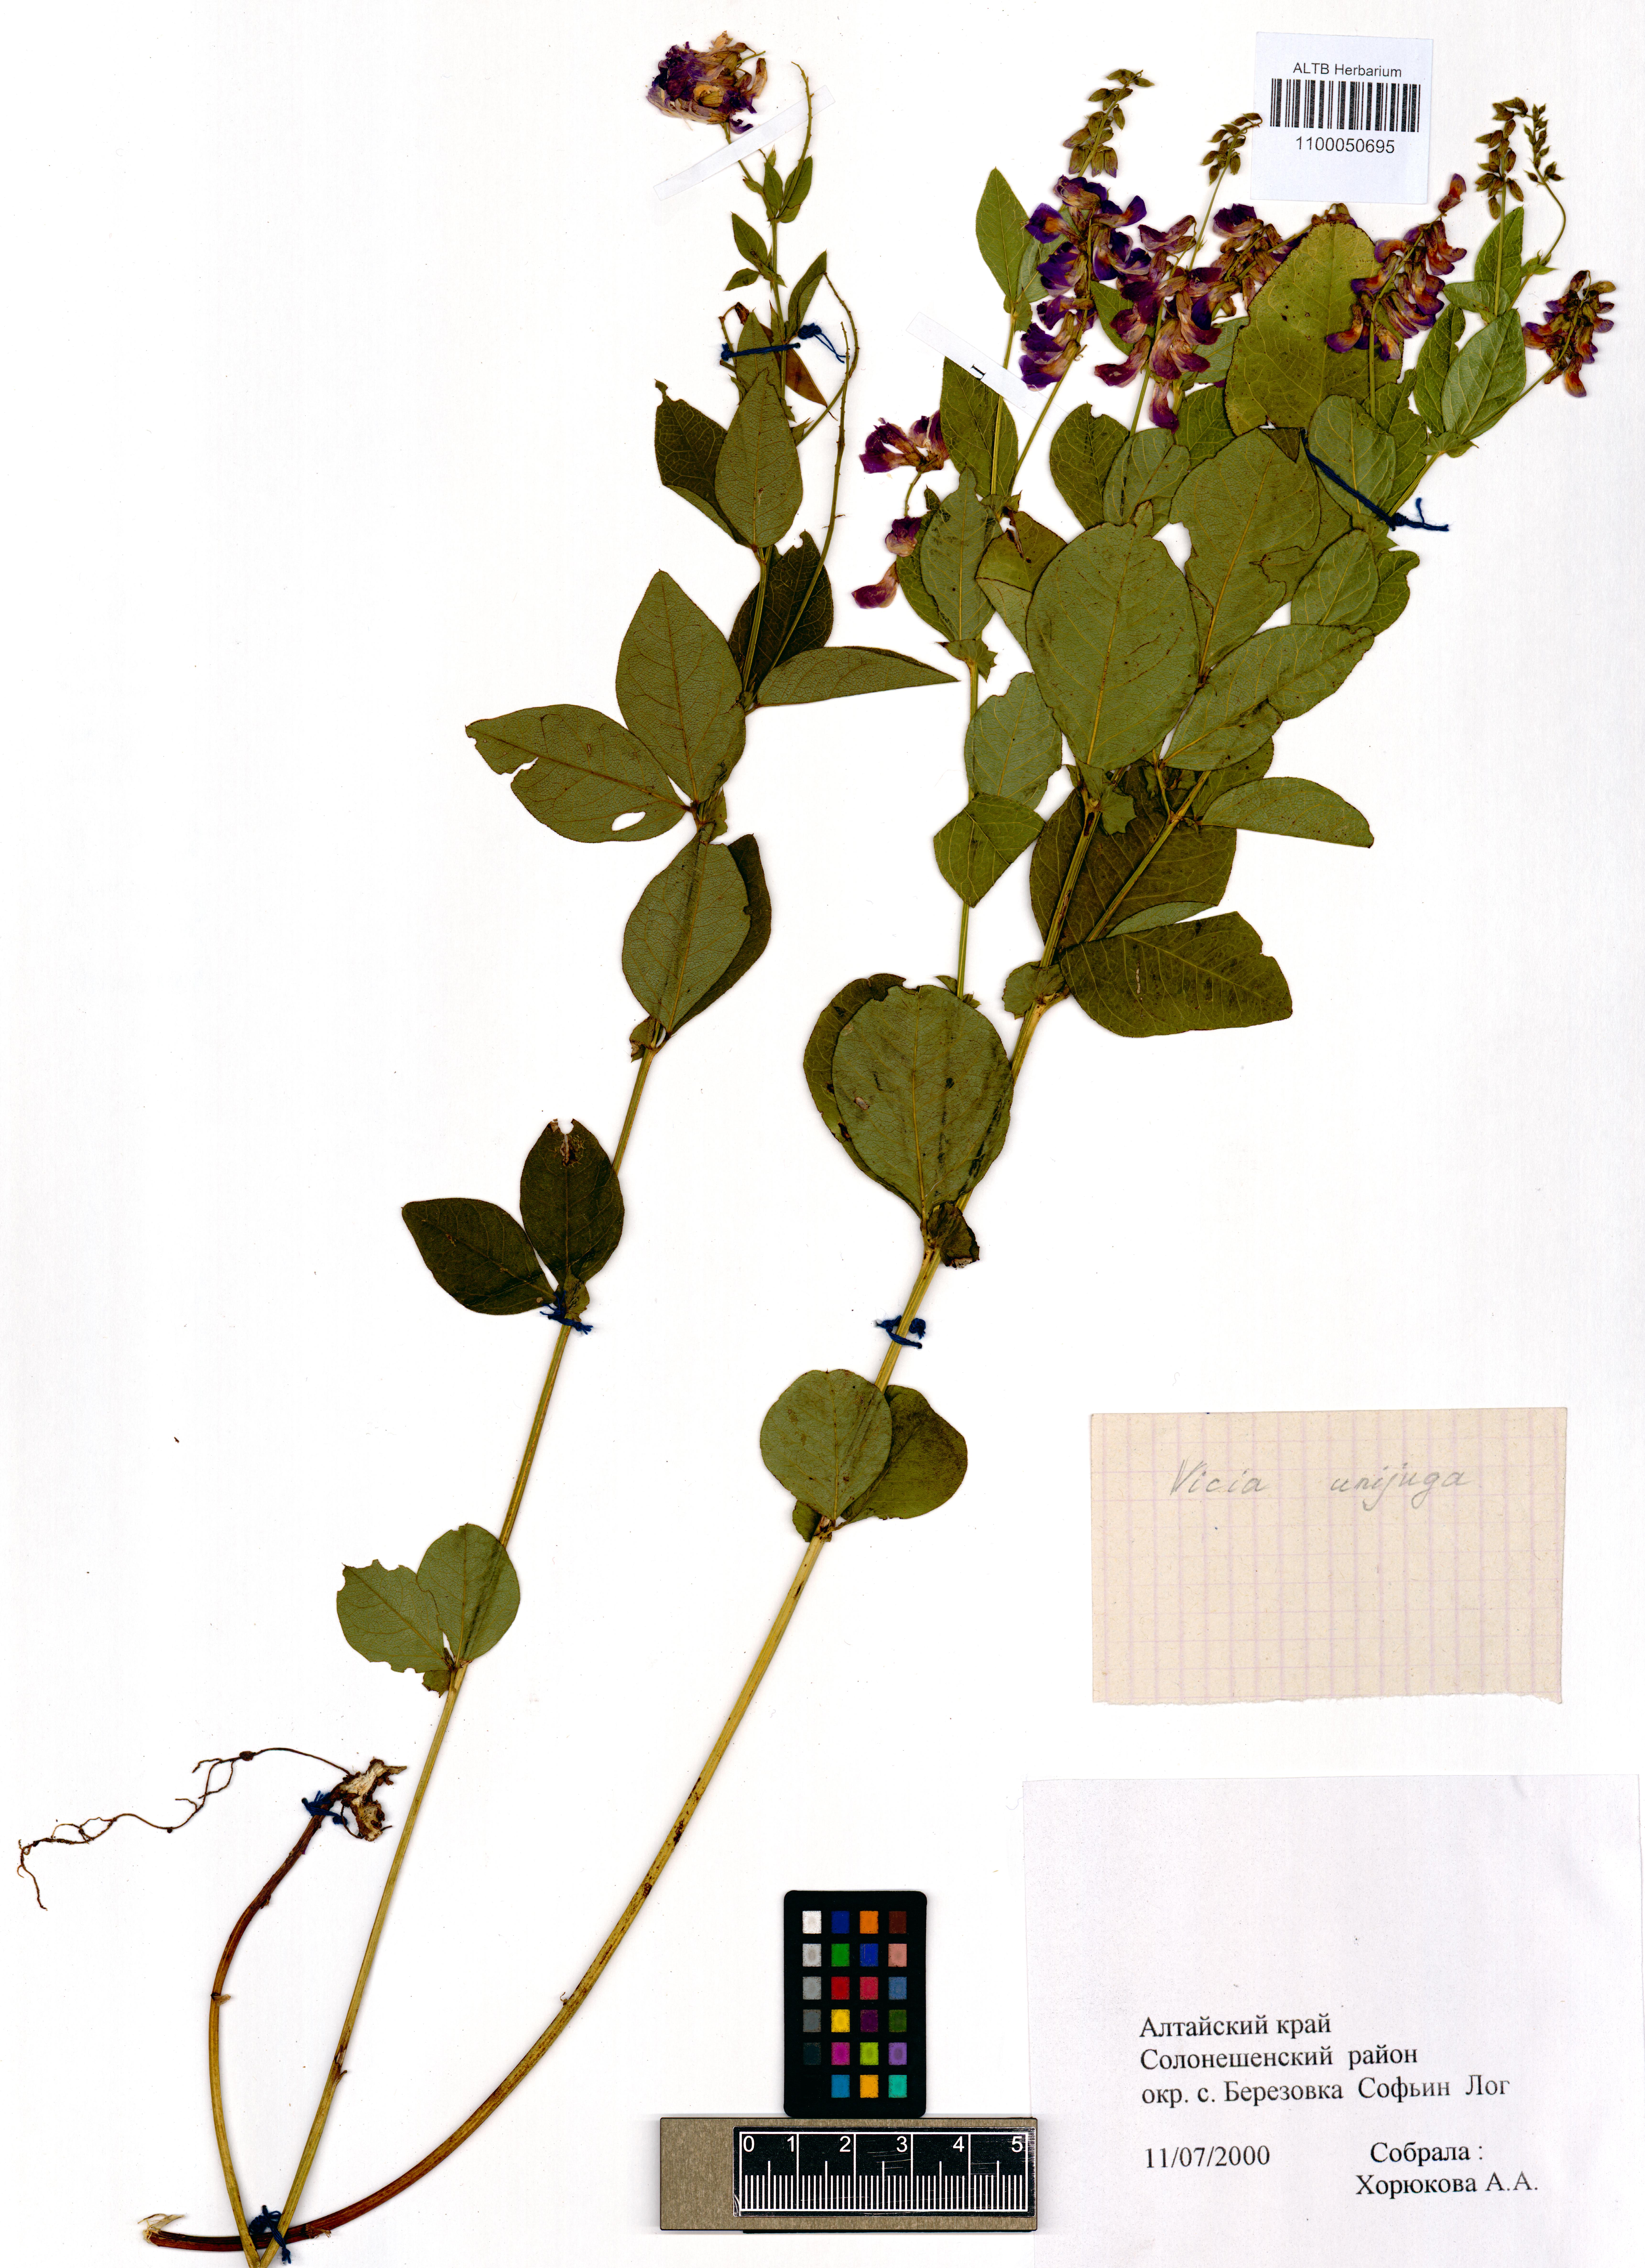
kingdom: Plantae
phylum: Tracheophyta
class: Magnoliopsida
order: Fabales
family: Fabaceae
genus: Vicia
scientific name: Vicia unijuga
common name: Two-leaf vetch
